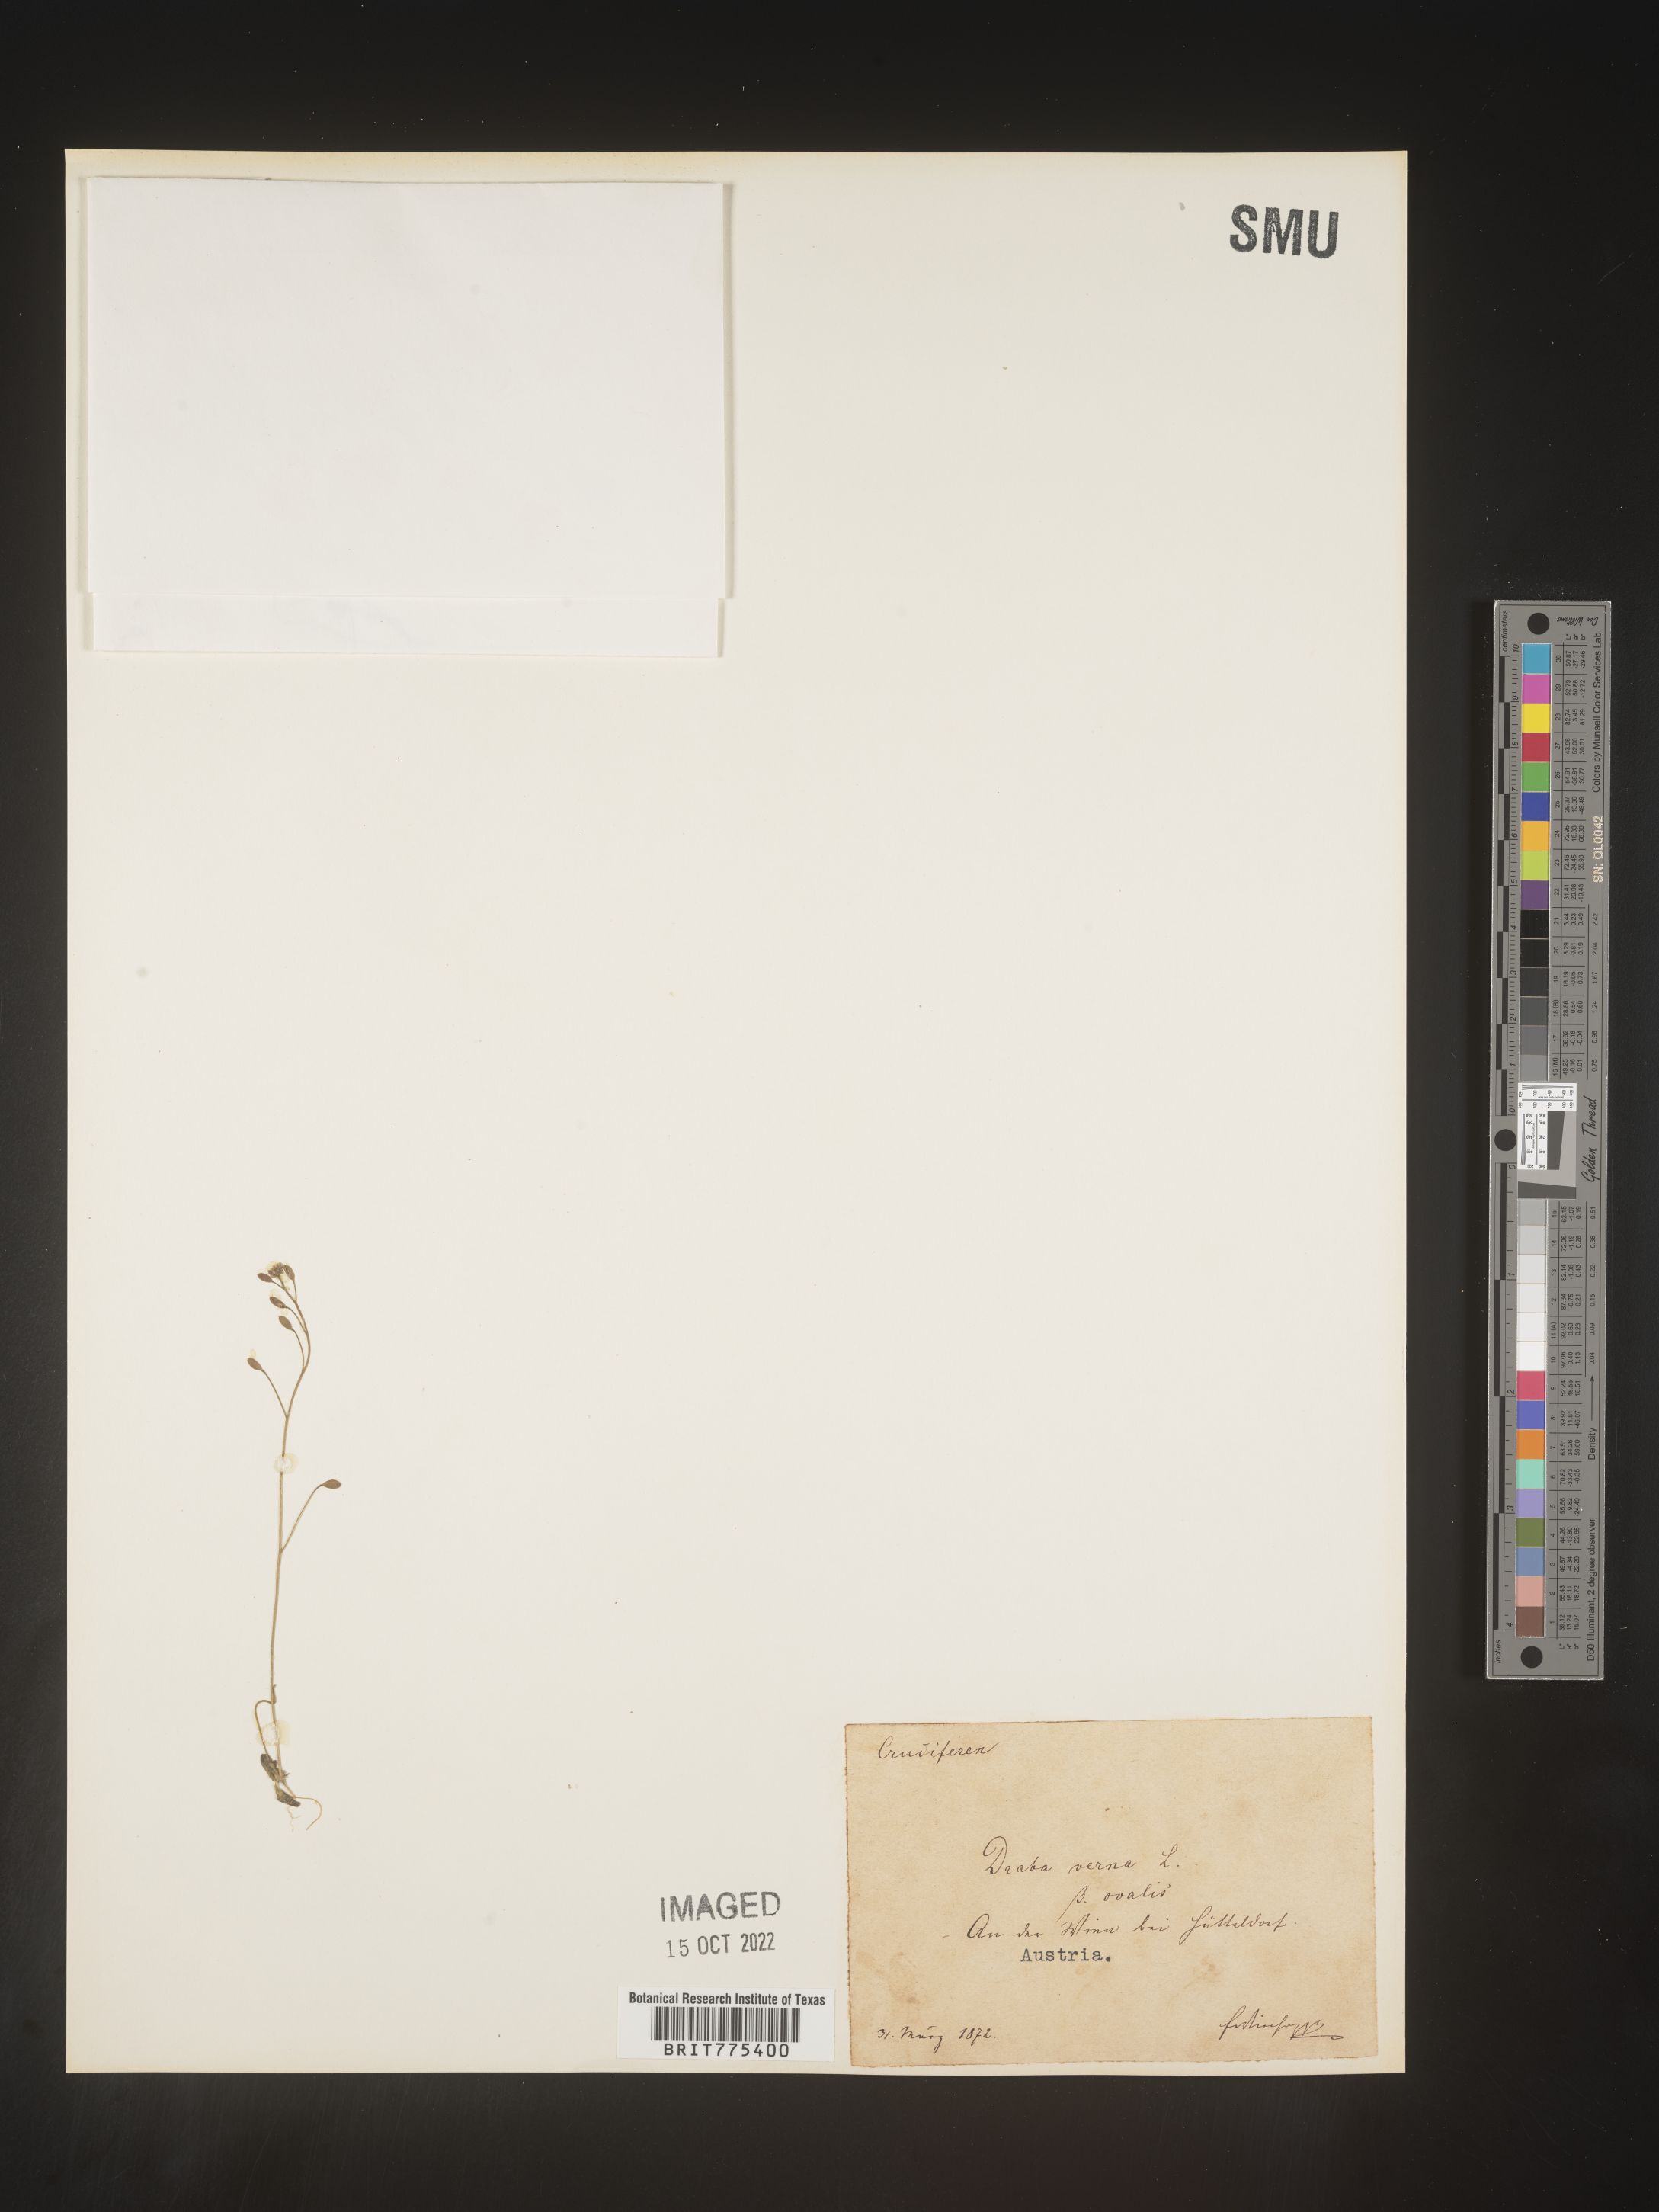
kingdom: Plantae
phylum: Tracheophyta
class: Magnoliopsida
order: Brassicales
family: Brassicaceae
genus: Draba
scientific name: Draba
